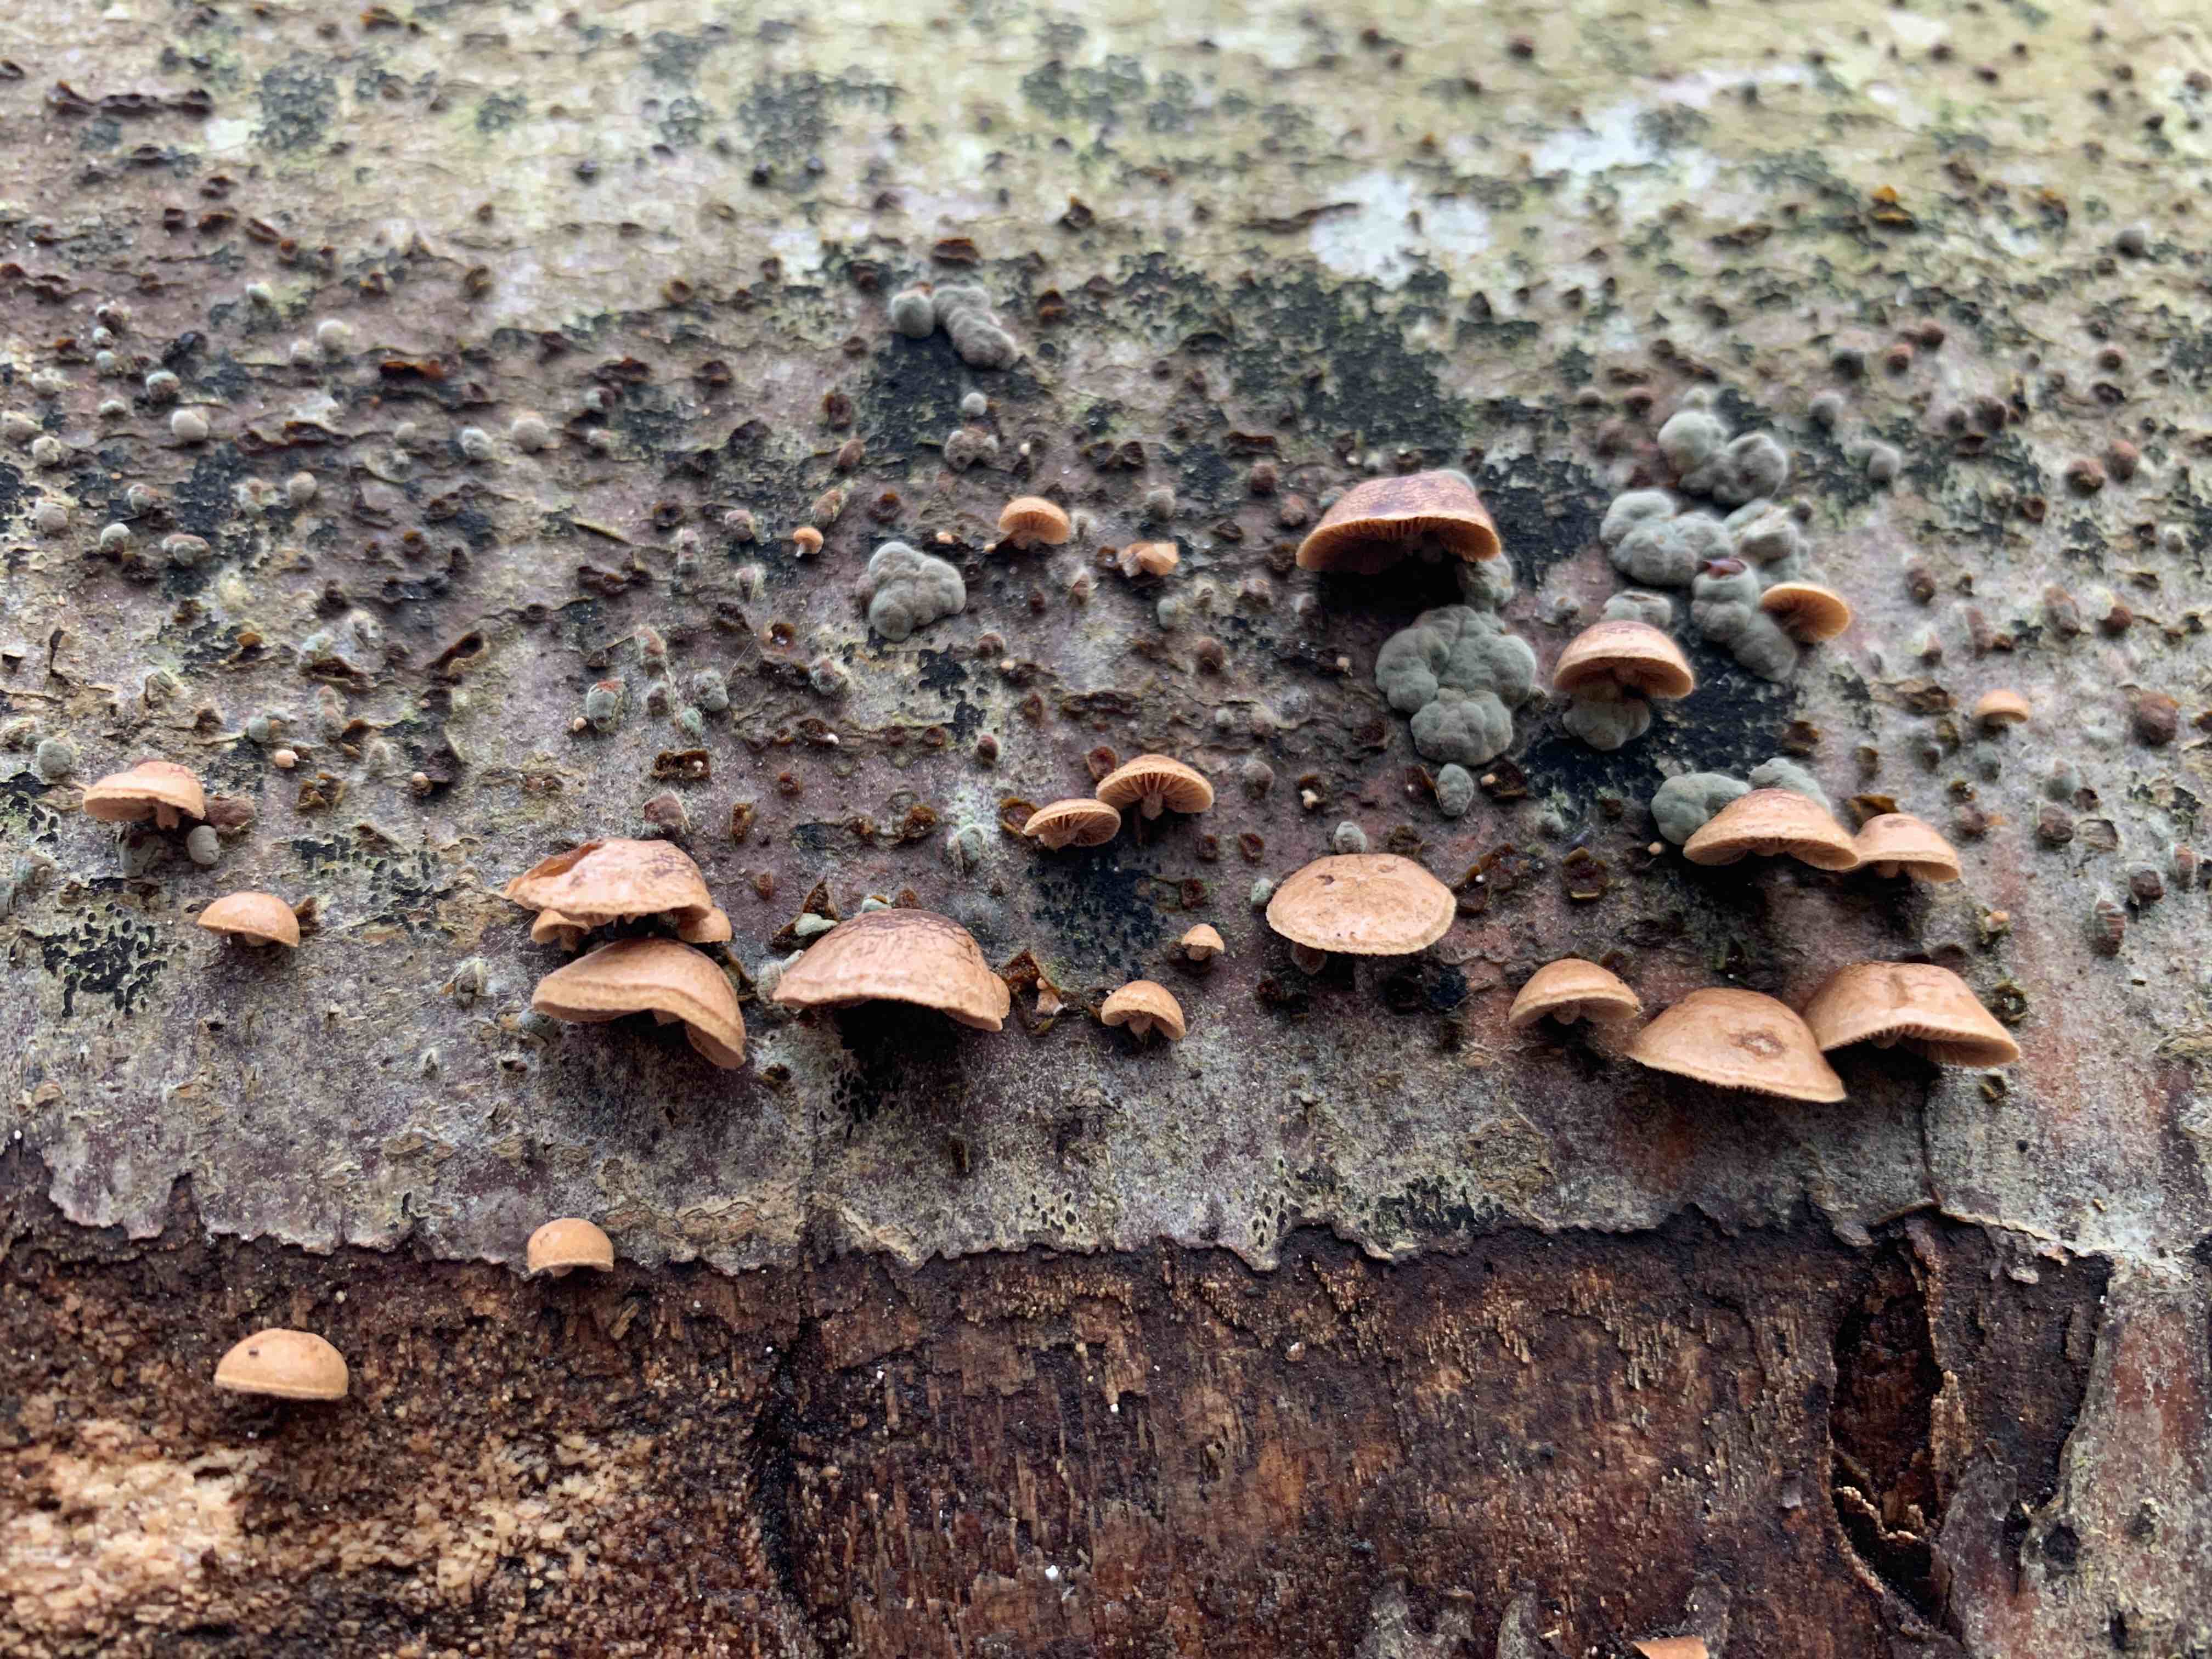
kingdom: Fungi
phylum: Basidiomycota
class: Agaricomycetes
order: Agaricales
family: Strophariaceae
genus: Deconica
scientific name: Deconica horizontalis
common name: ved-stråhat
